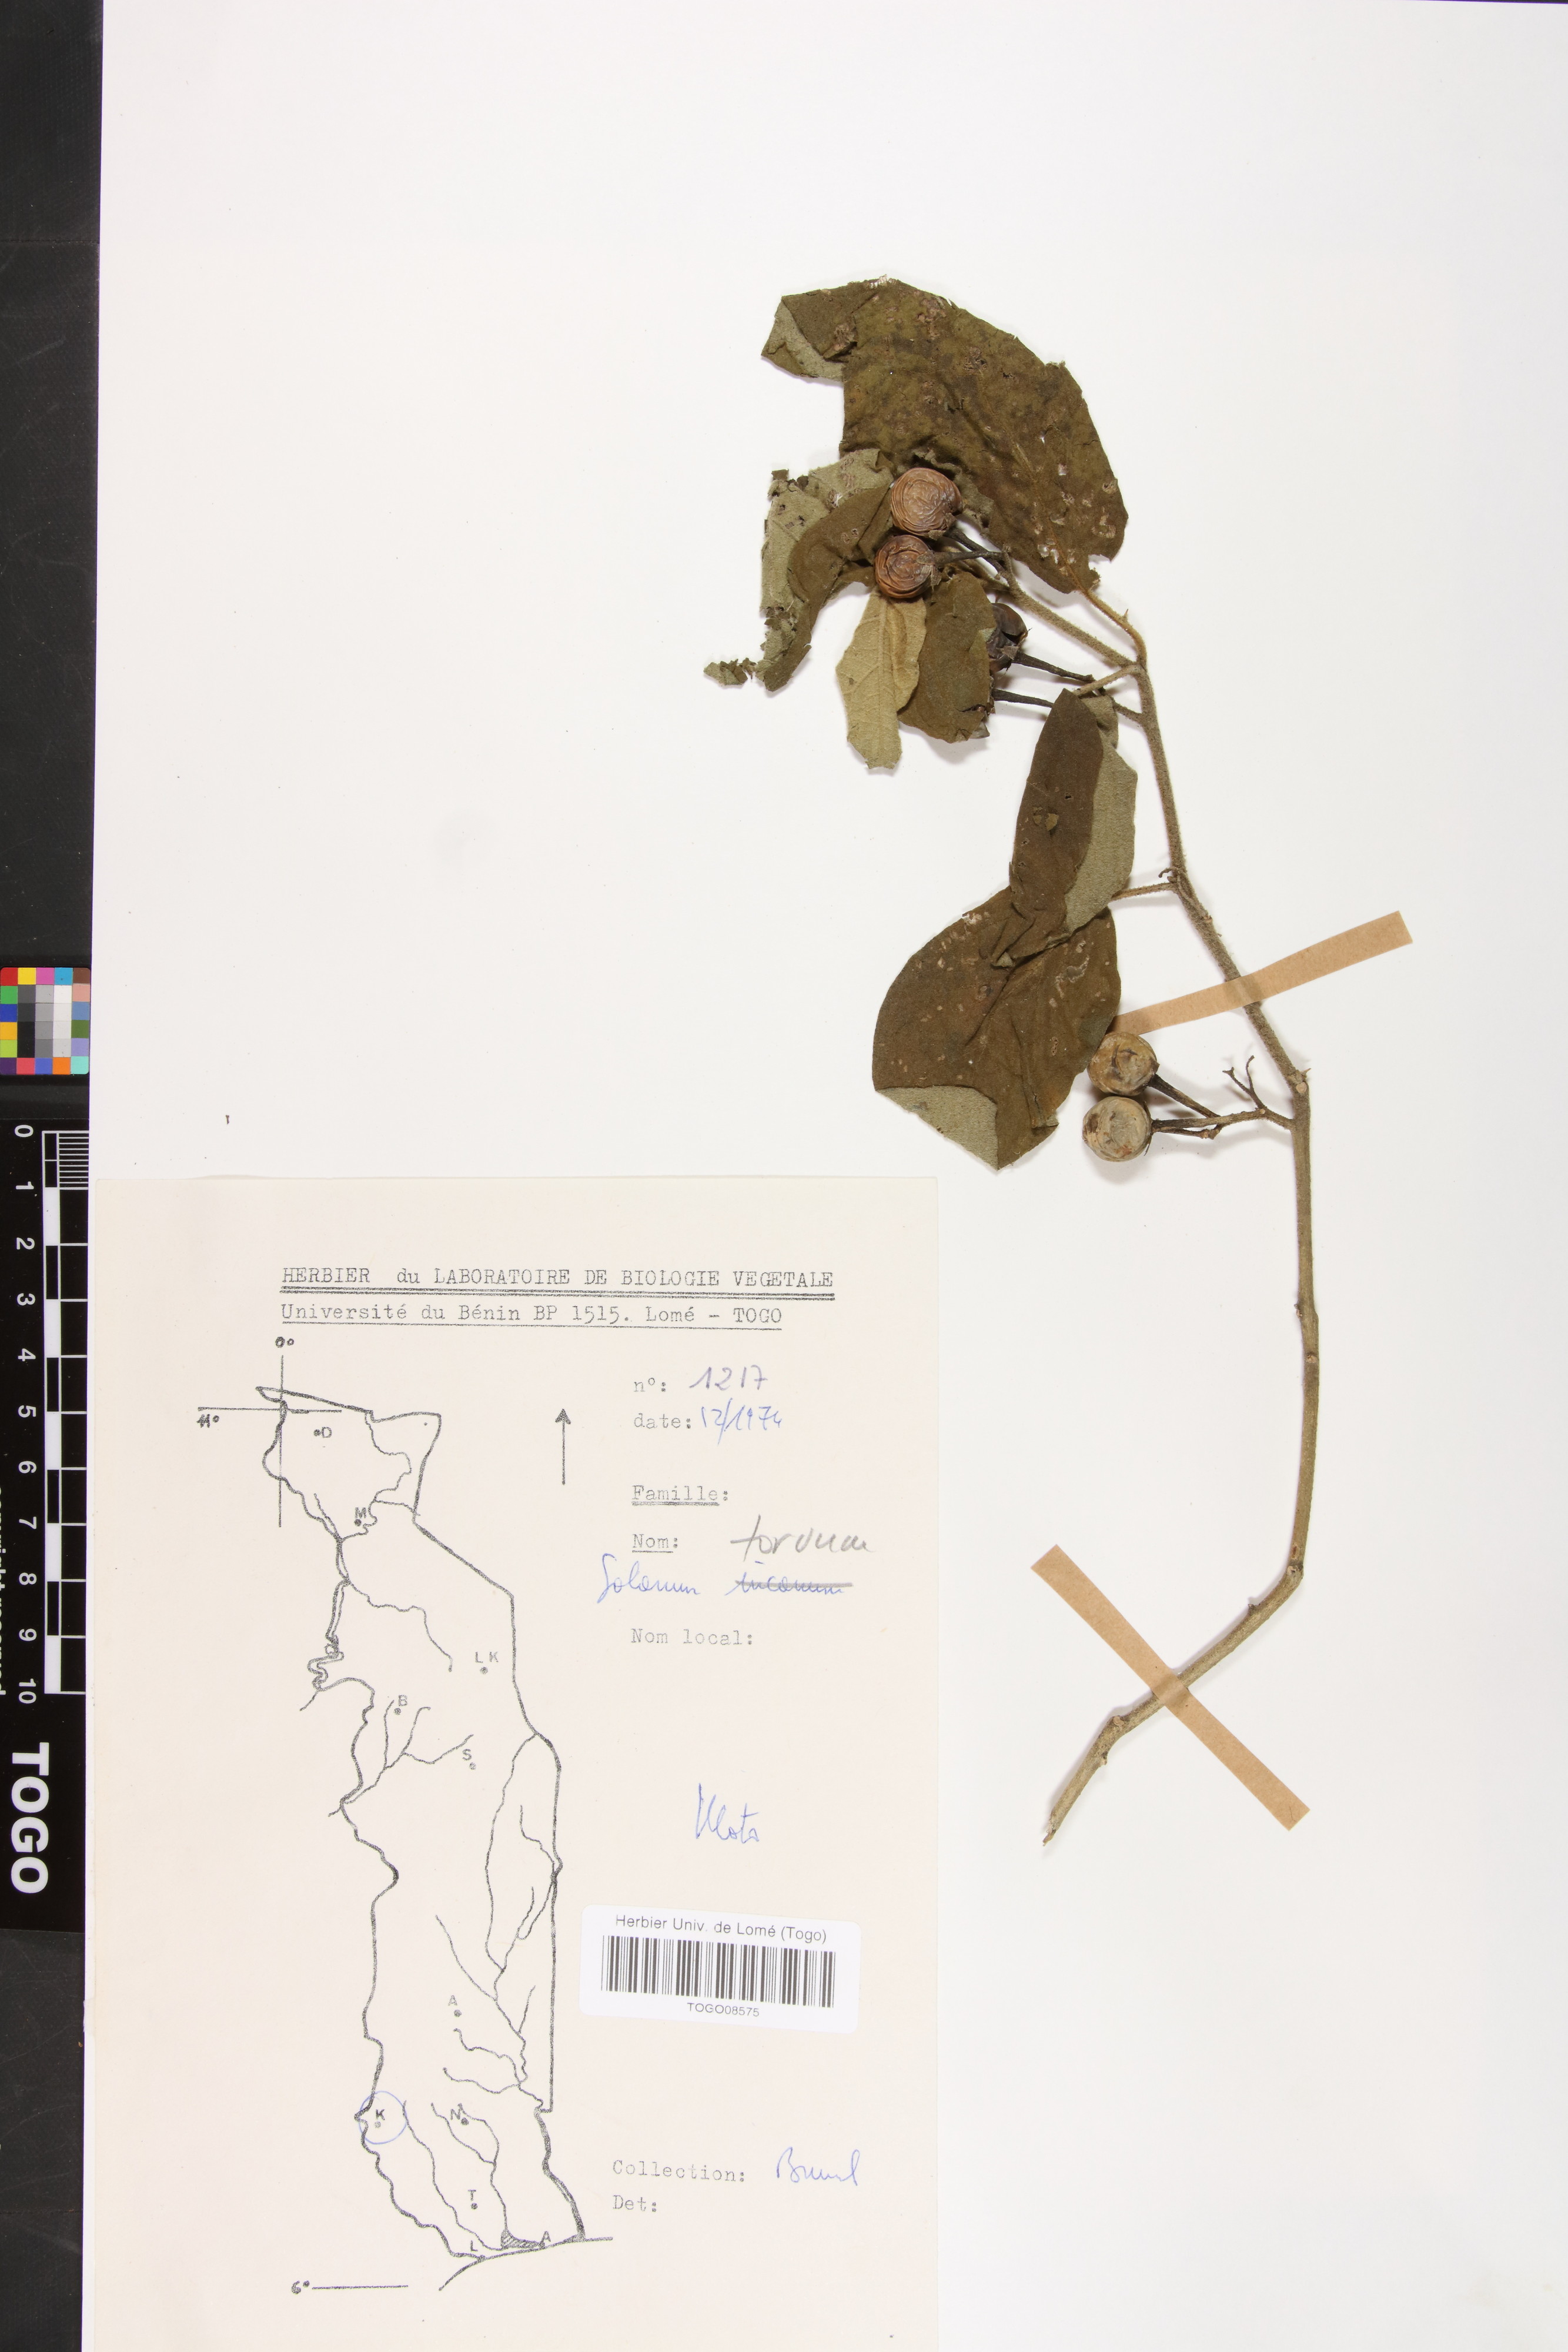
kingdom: Plantae
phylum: Tracheophyta
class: Magnoliopsida
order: Solanales
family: Solanaceae
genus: Solanum
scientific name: Solanum torvum
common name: Turkey berry
